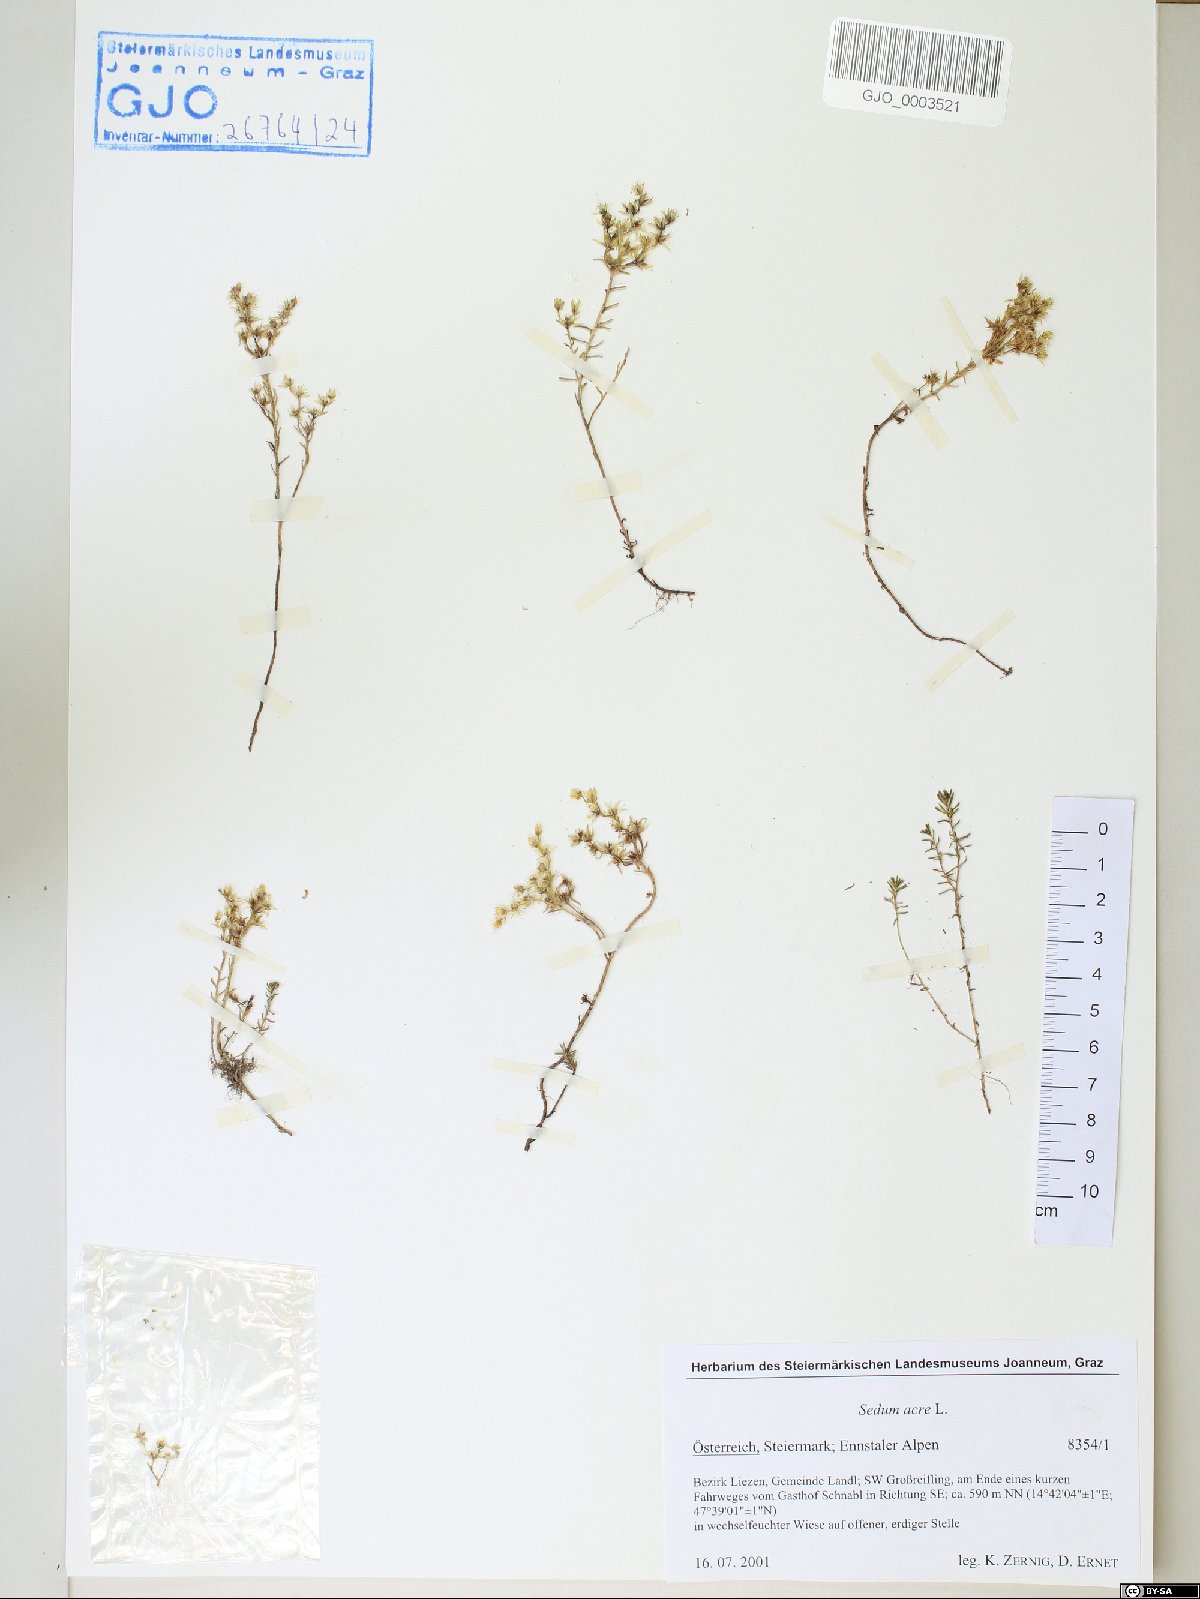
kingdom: Plantae
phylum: Tracheophyta
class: Magnoliopsida
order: Saxifragales
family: Crassulaceae
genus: Sedum
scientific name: Sedum acre
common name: Biting stonecrop
